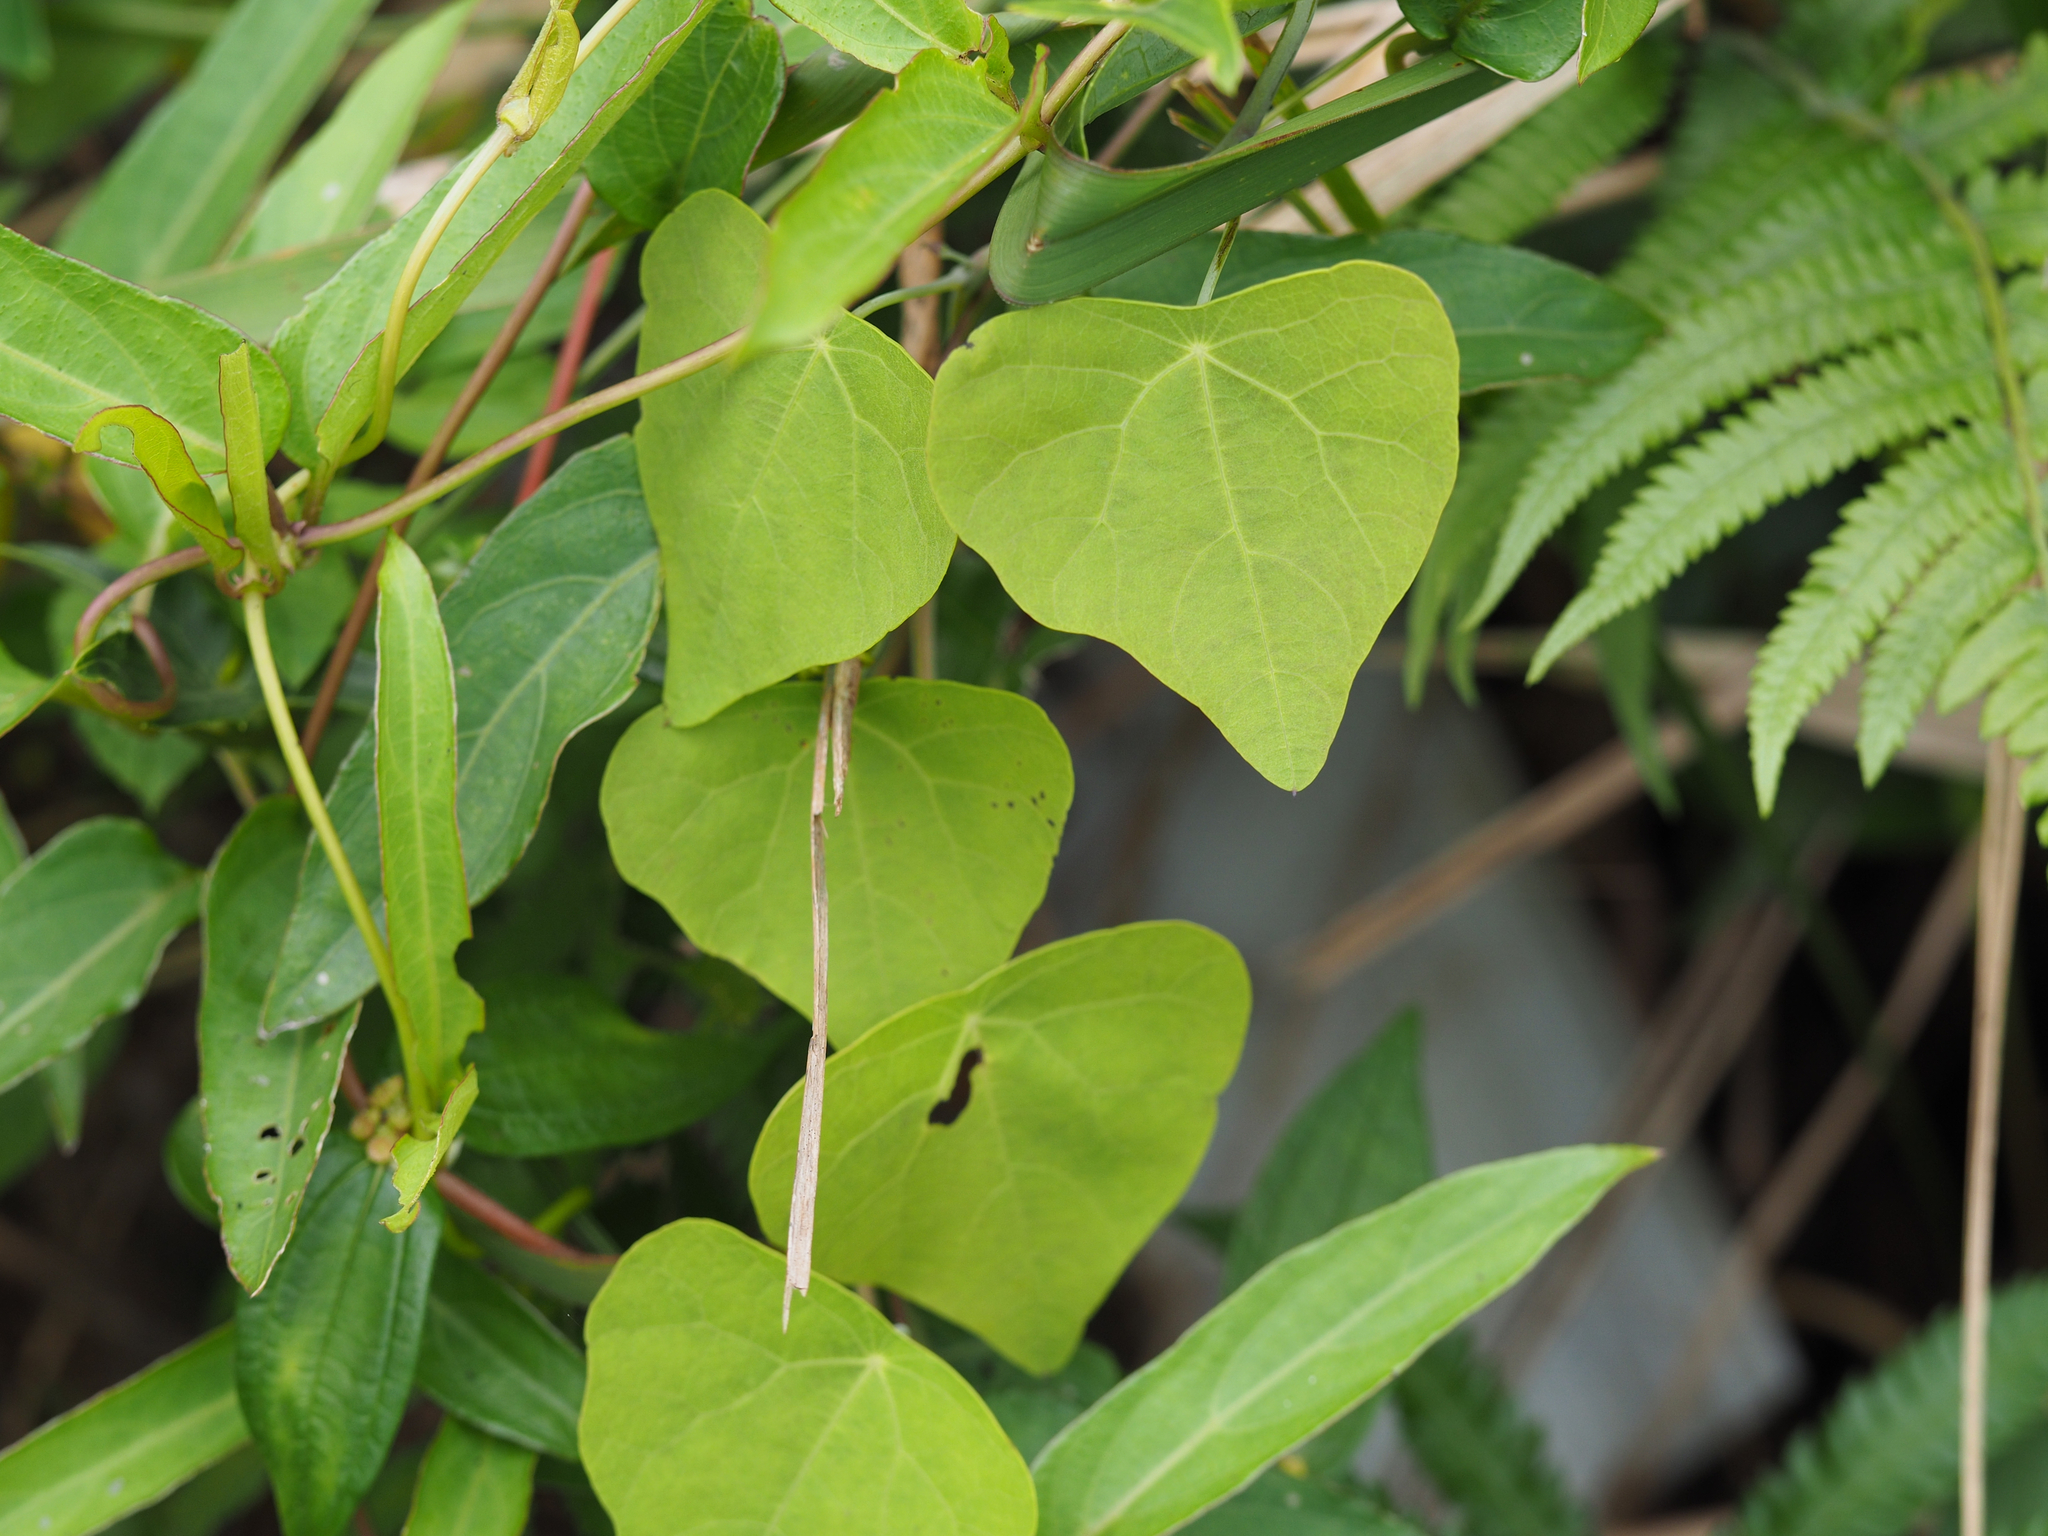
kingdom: Plantae
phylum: Tracheophyta
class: Magnoliopsida
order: Ranunculales
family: Menispermaceae
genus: Stephania
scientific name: Stephania japonica
